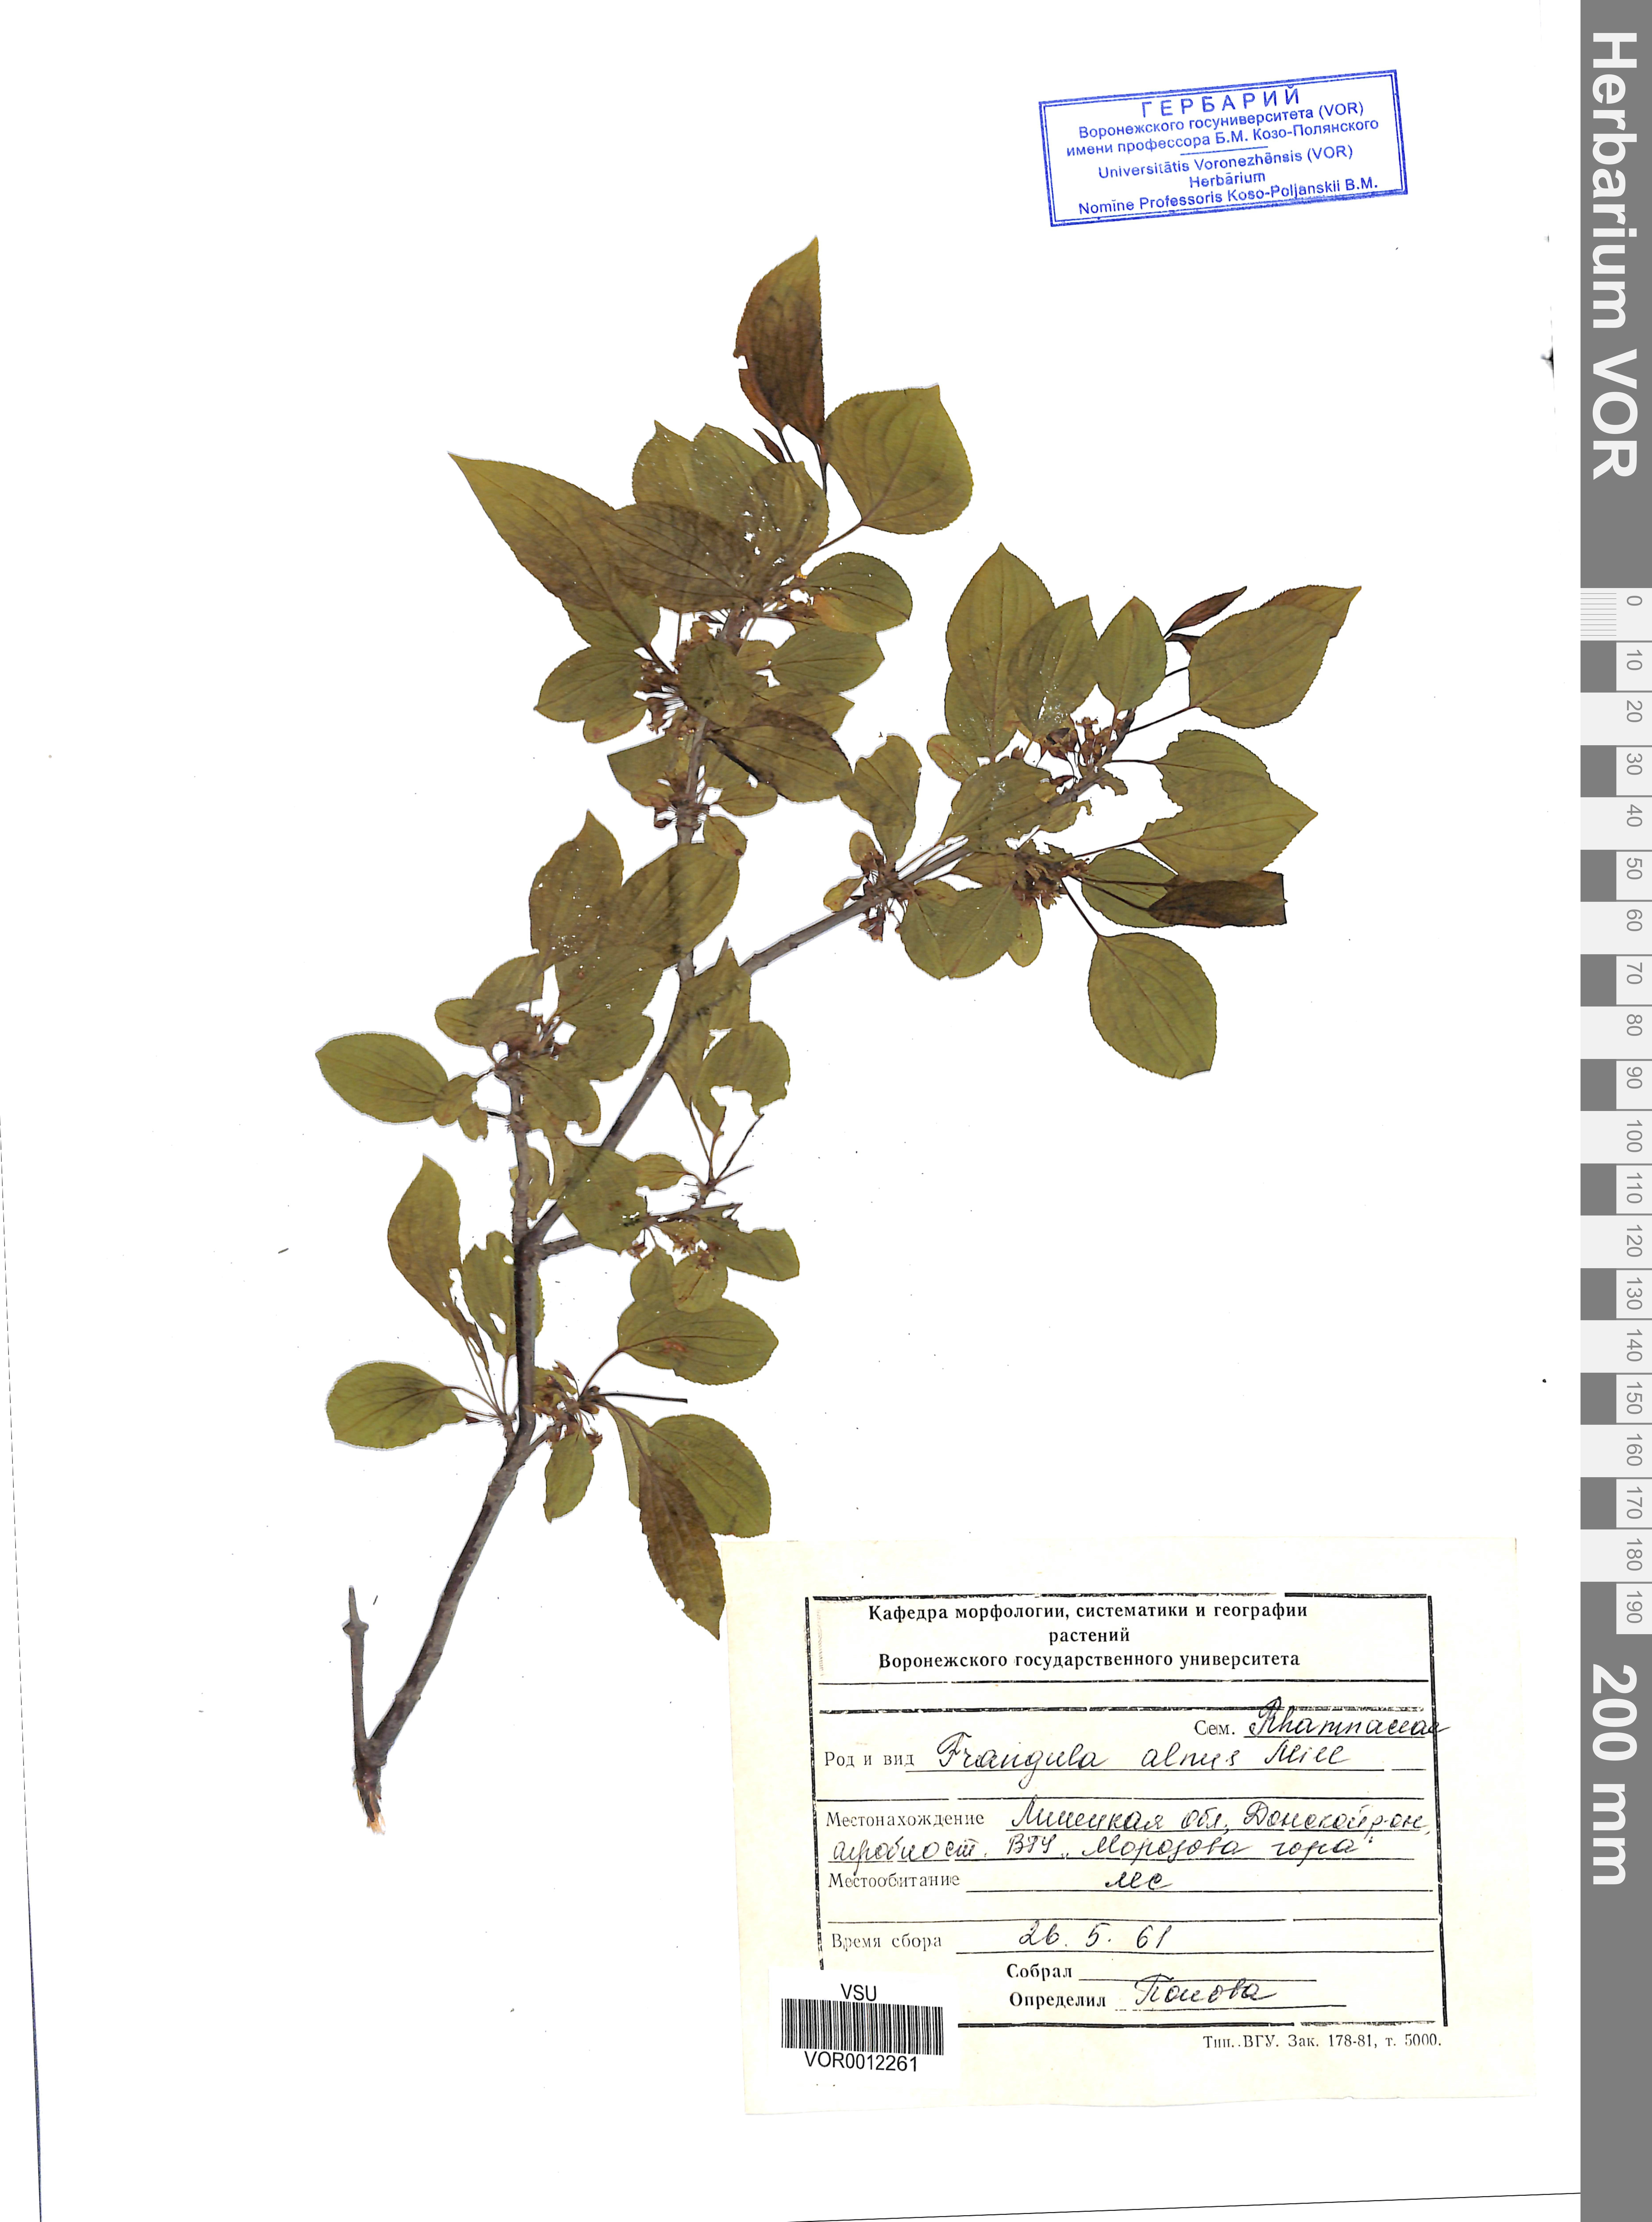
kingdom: Plantae
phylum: Tracheophyta
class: Magnoliopsida
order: Rosales
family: Rhamnaceae
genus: Frangula
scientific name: Frangula alnus
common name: Alder buckthorn
